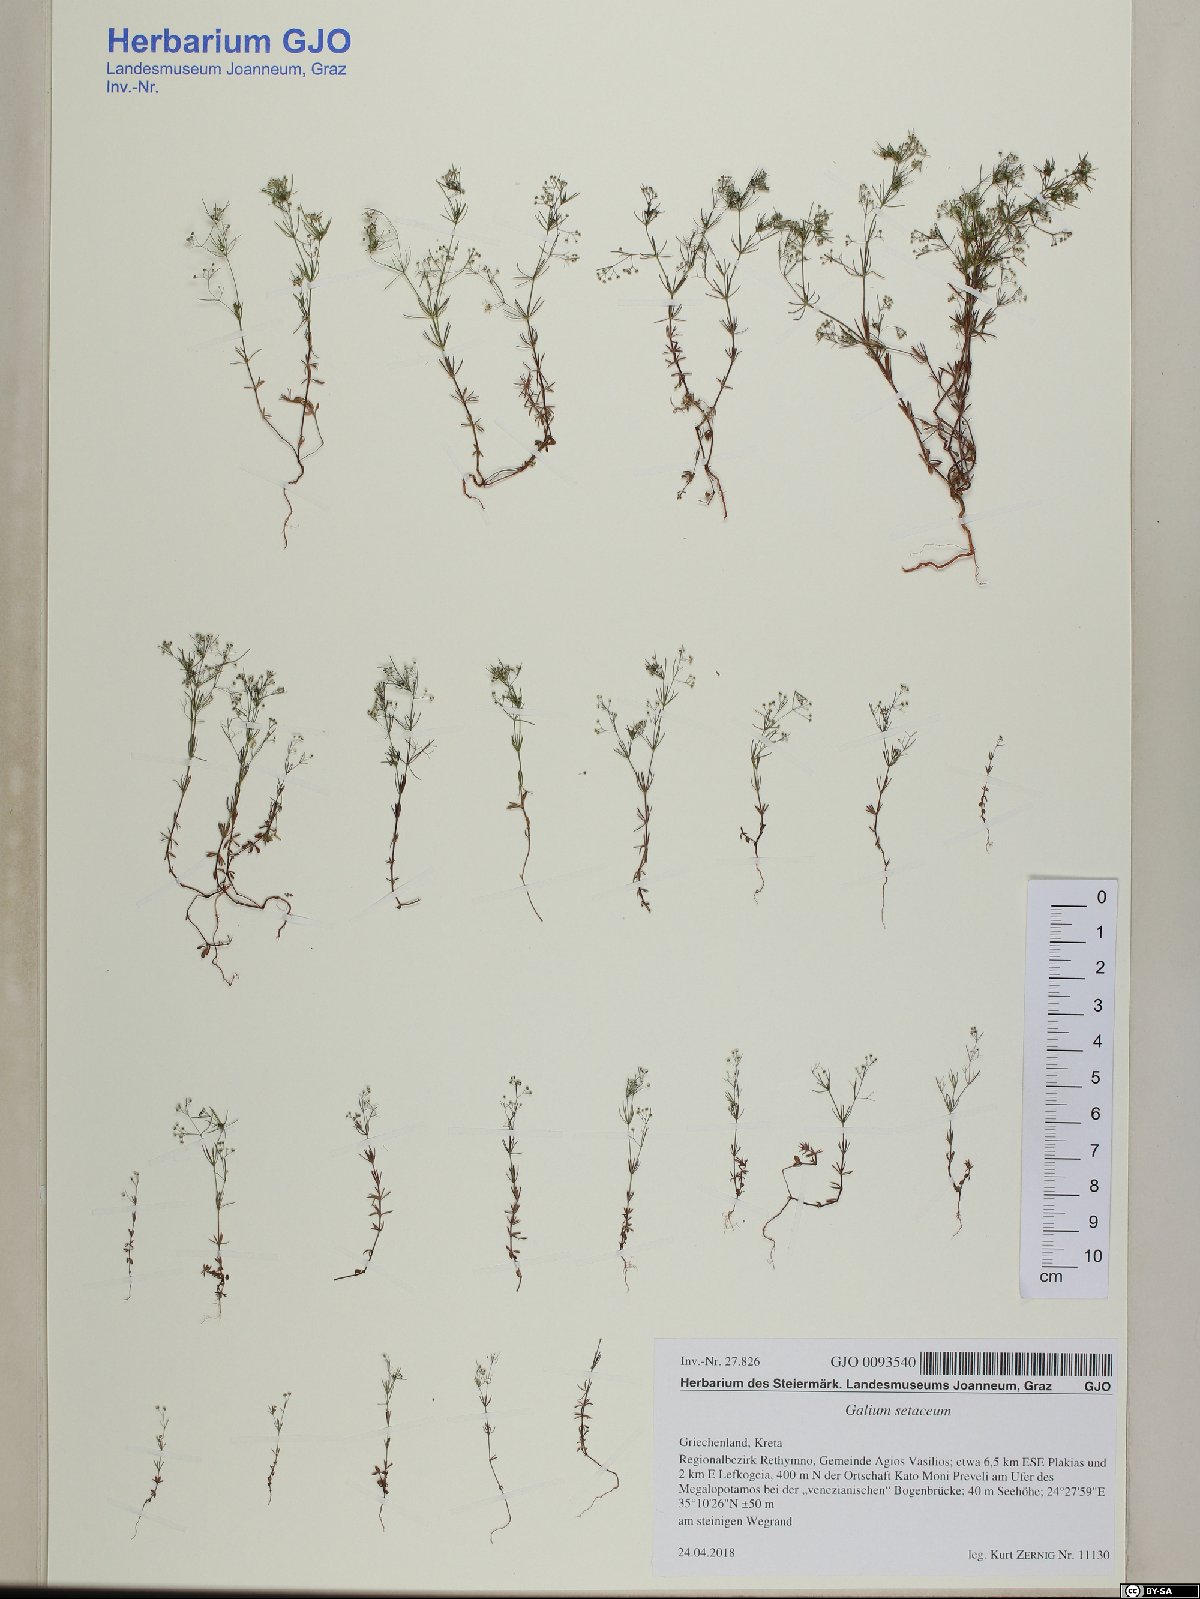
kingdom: Plantae
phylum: Tracheophyta
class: Magnoliopsida
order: Gentianales
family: Rubiaceae
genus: Galium
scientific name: Galium setaceum
